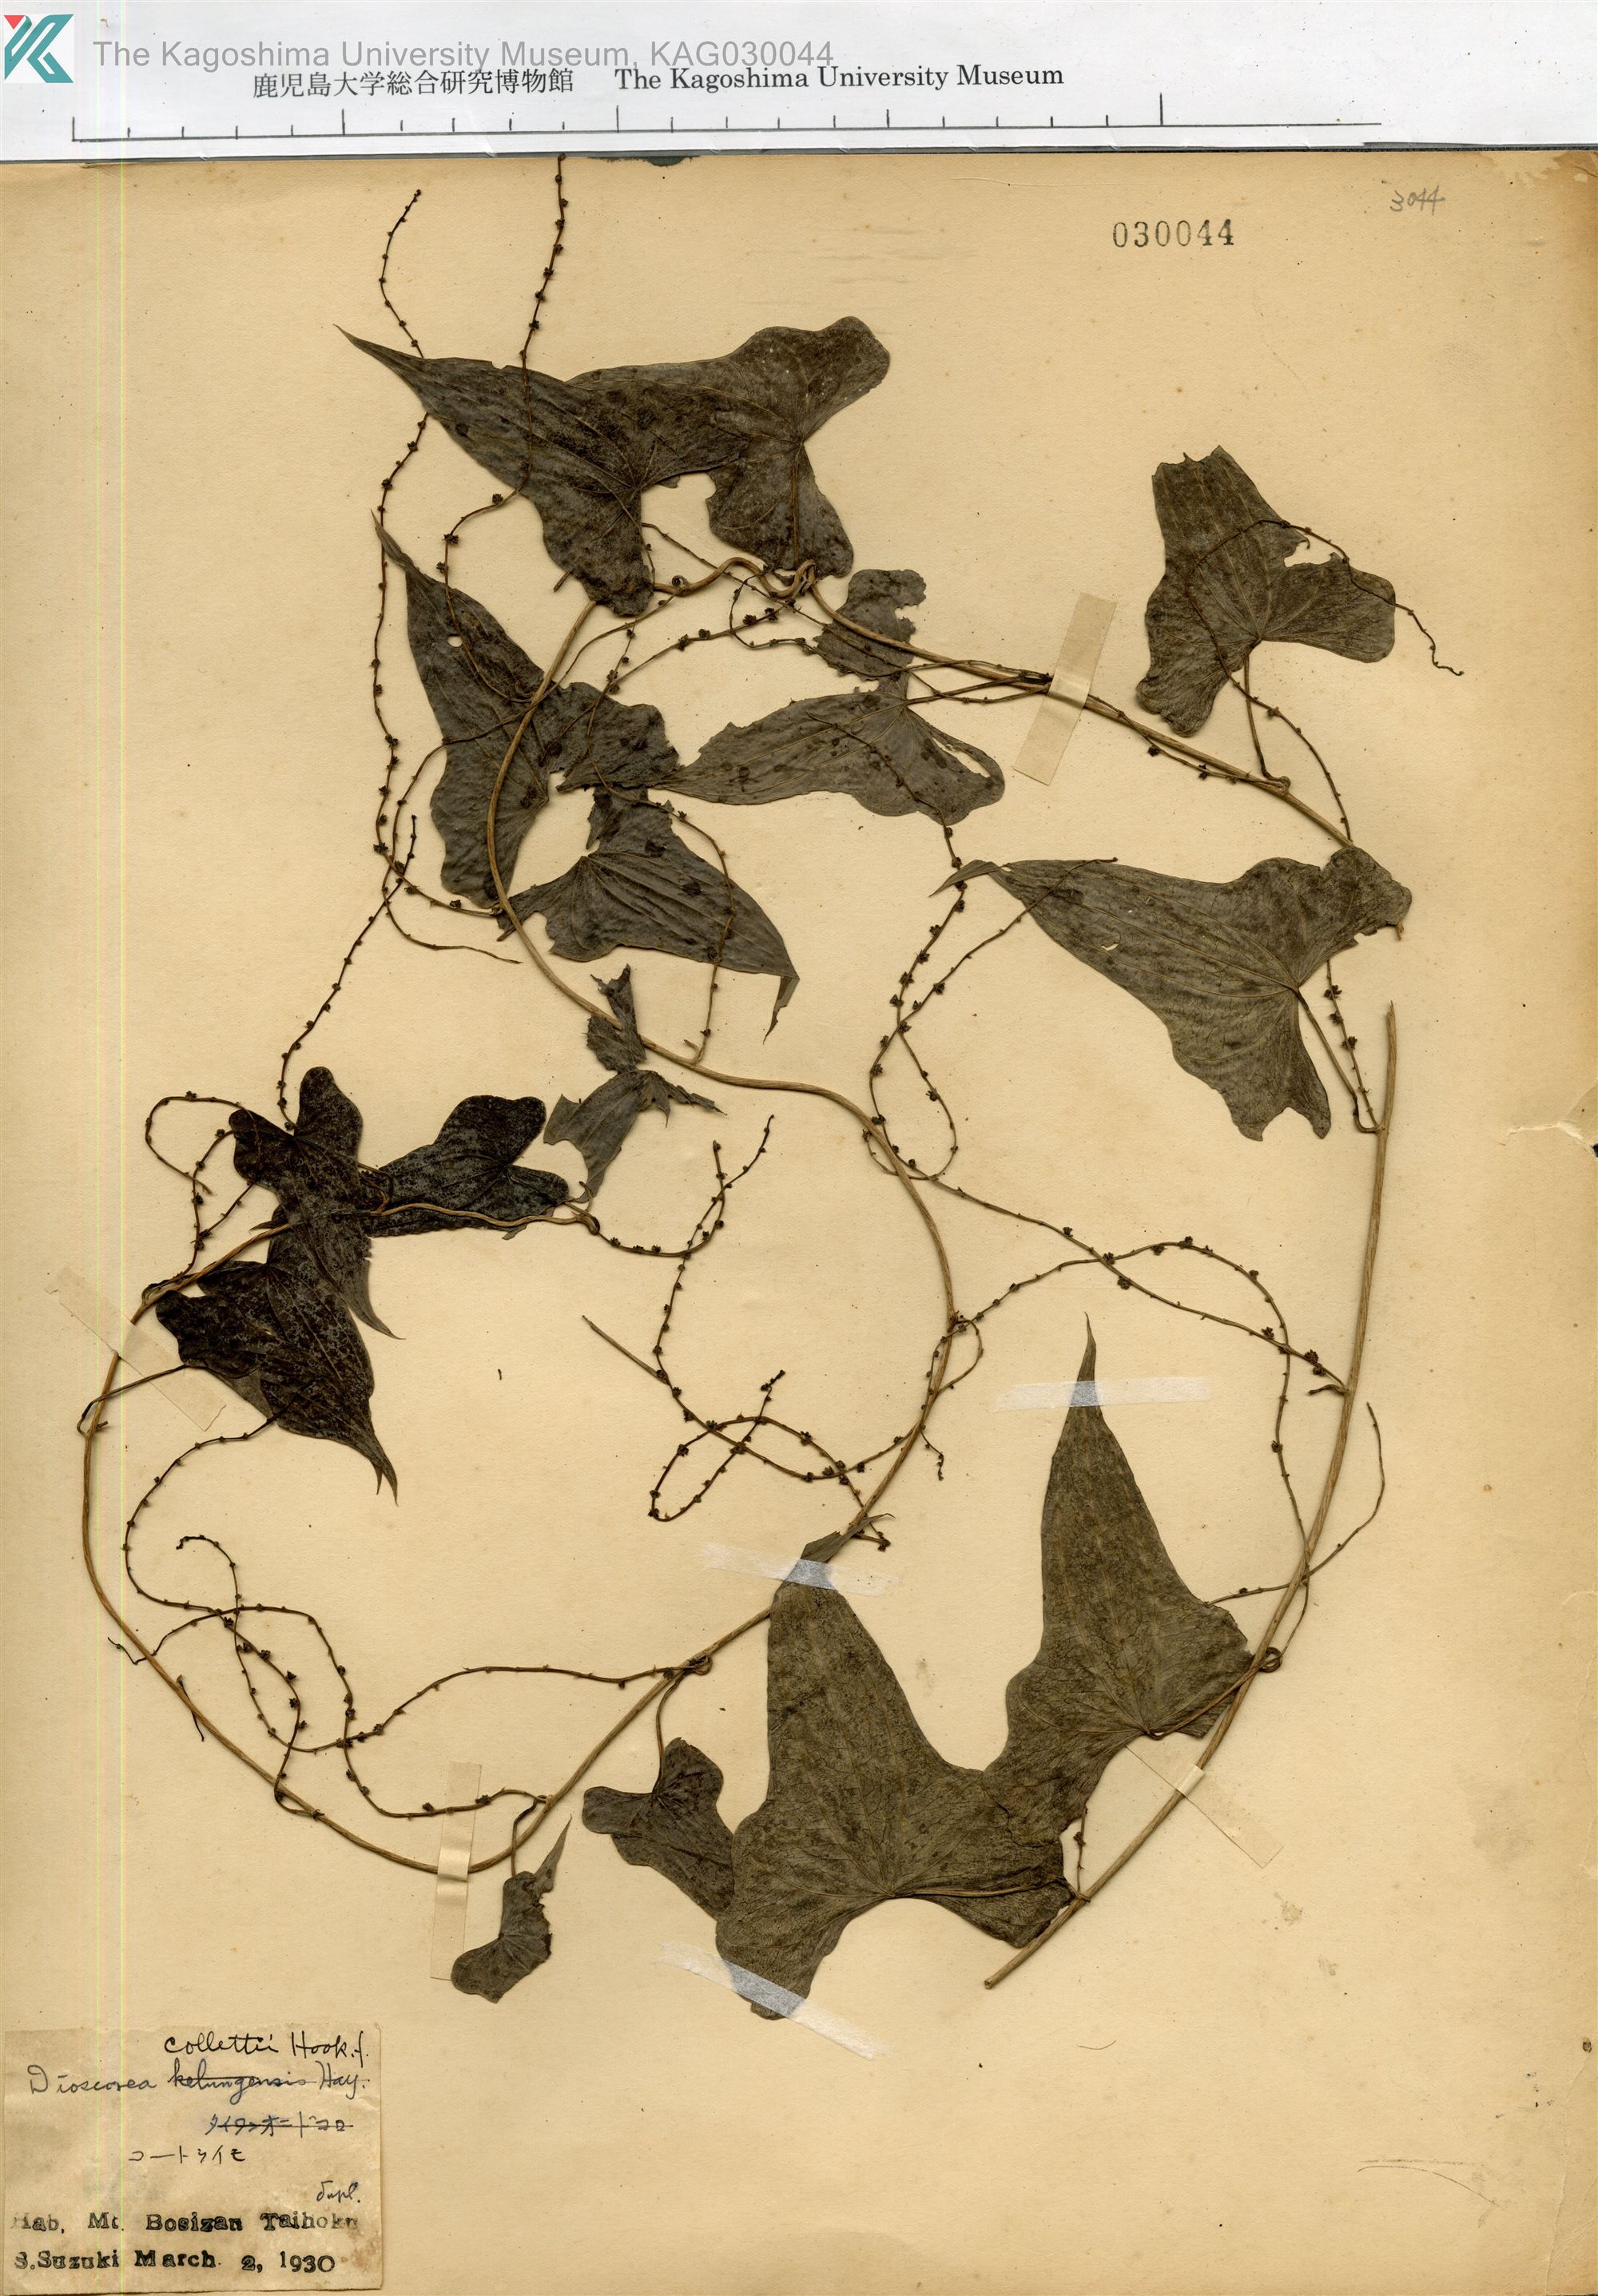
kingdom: Plantae
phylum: Tracheophyta
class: Liliopsida
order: Dioscoreales
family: Dioscoreaceae
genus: Dioscorea
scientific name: Dioscorea japonica
